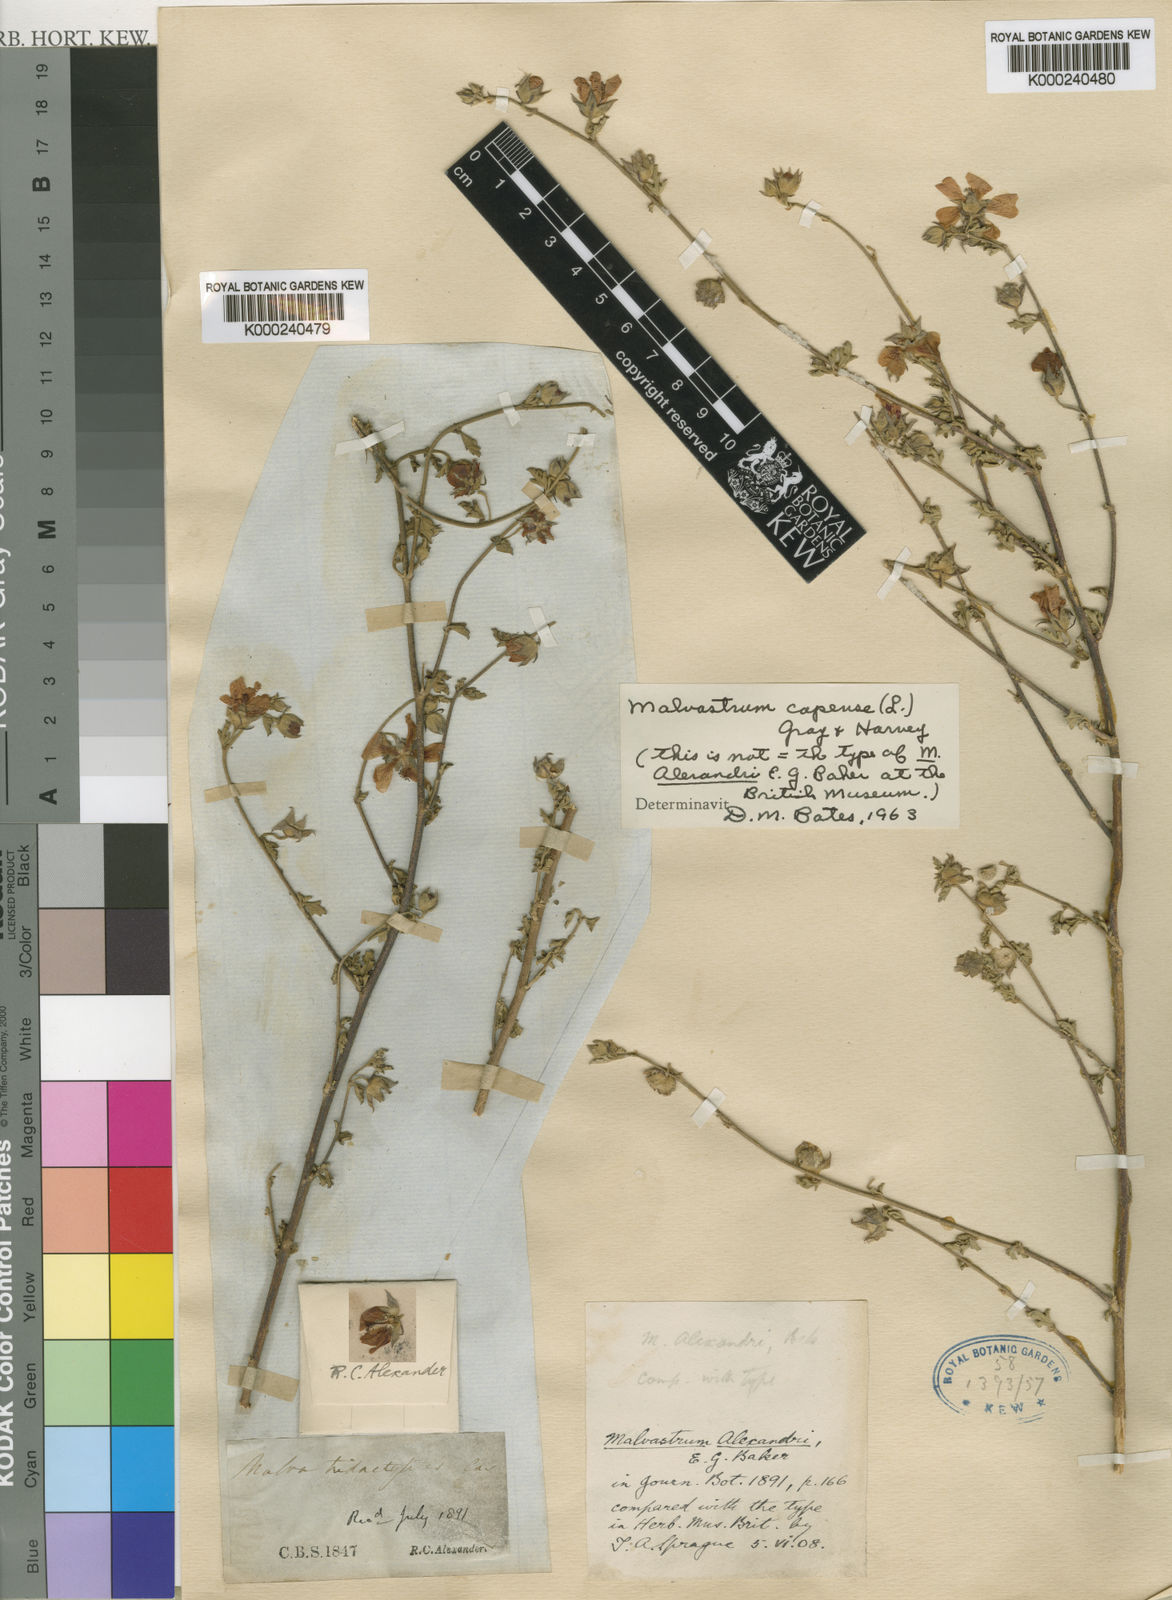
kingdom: Plantae
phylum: Tracheophyta
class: Magnoliopsida
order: Malvales
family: Malvaceae
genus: Anisodontea
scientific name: Anisodontea capensis
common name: Cape african-queen
